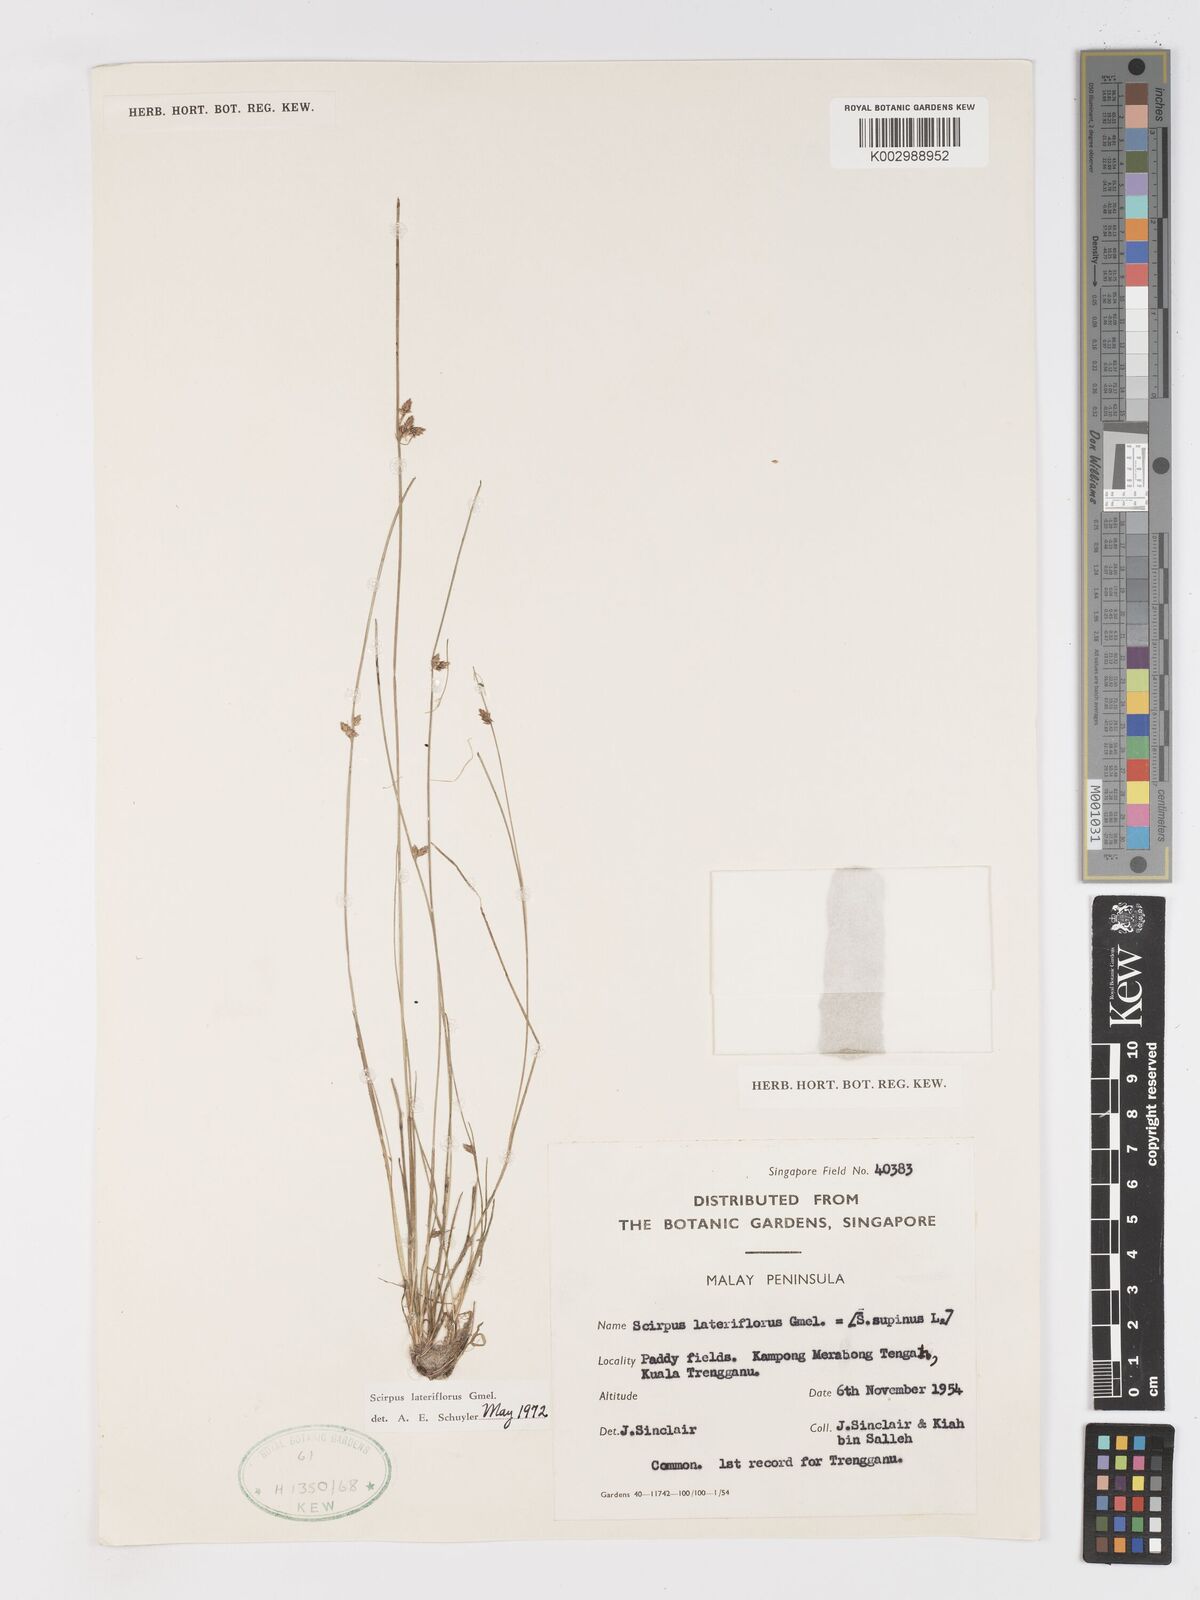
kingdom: Plantae
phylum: Tracheophyta
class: Liliopsida
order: Poales
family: Cyperaceae
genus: Schoenoplectiella
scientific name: Schoenoplectiella lateriflora
